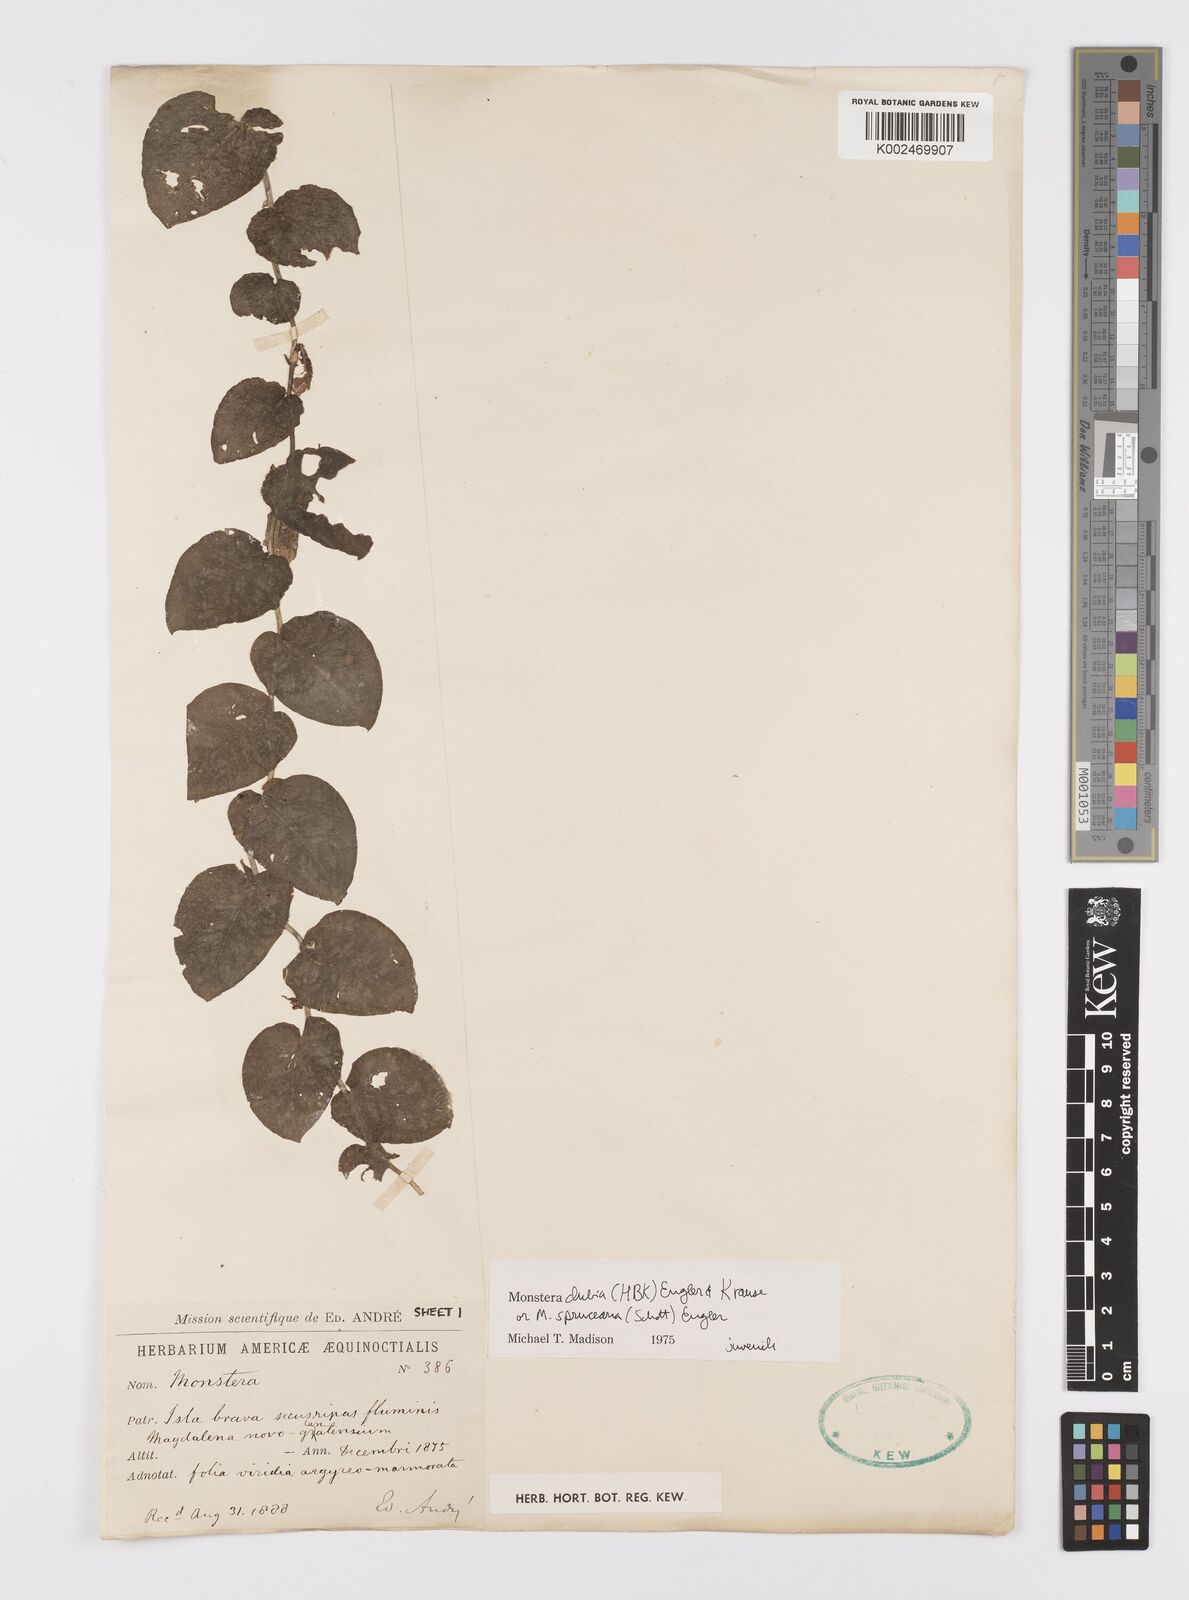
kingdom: Plantae
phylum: Tracheophyta
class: Liliopsida
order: Alismatales
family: Araceae
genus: Monstera
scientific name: Monstera dubia
